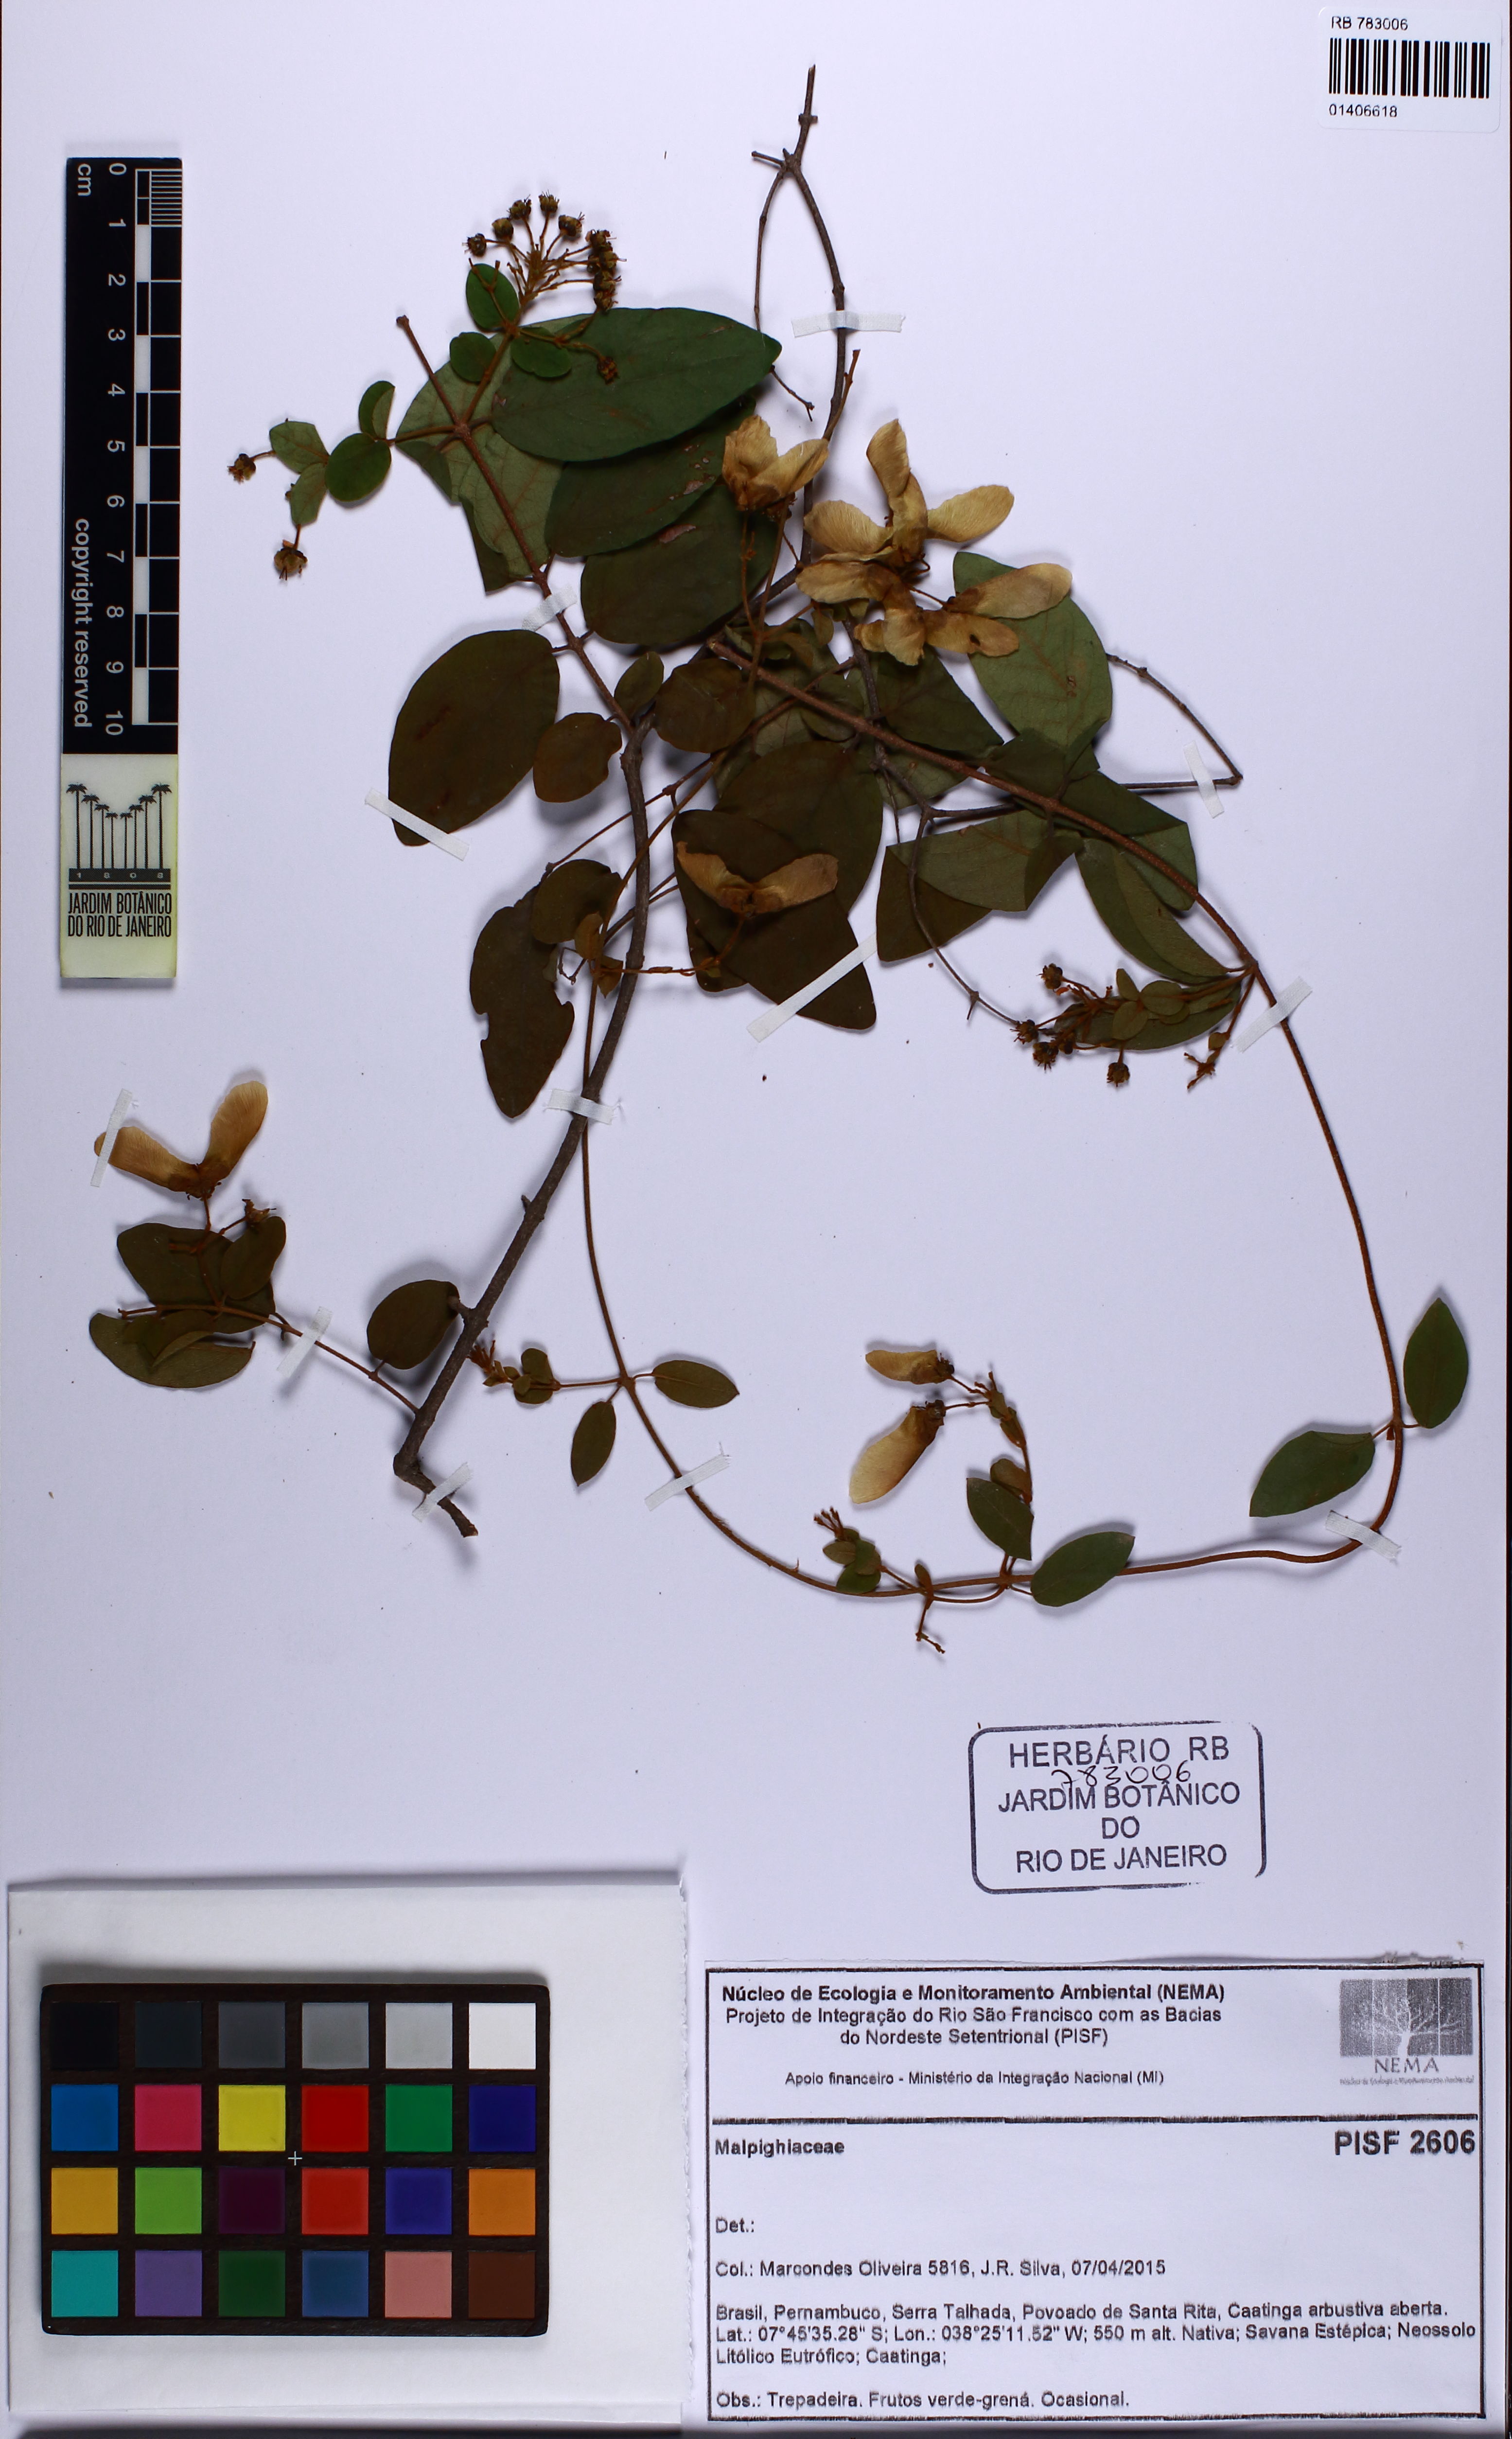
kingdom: Plantae
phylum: Tracheophyta
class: Magnoliopsida
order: Malpighiales
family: Malpighiaceae
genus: Heteropterys
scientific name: Heteropterys
